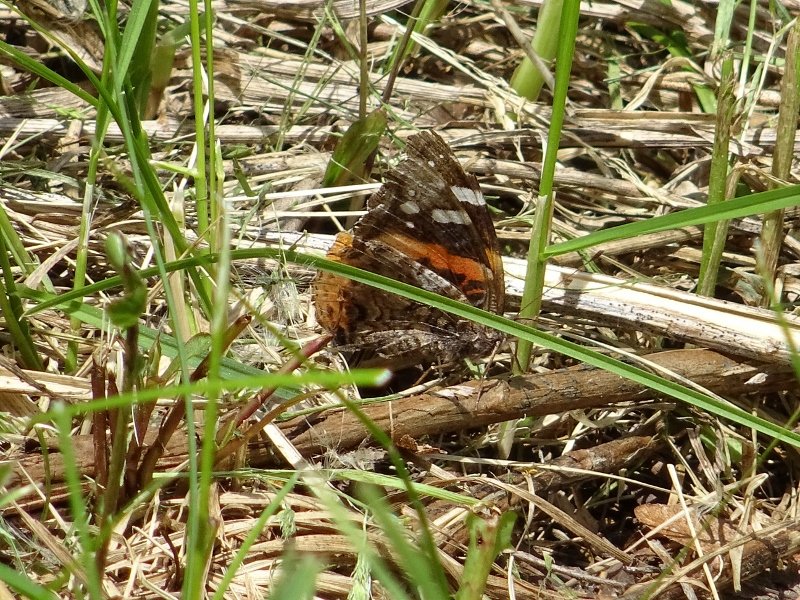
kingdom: Animalia
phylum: Arthropoda
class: Insecta
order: Lepidoptera
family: Nymphalidae
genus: Vanessa
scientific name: Vanessa atalanta
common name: Red Admiral
